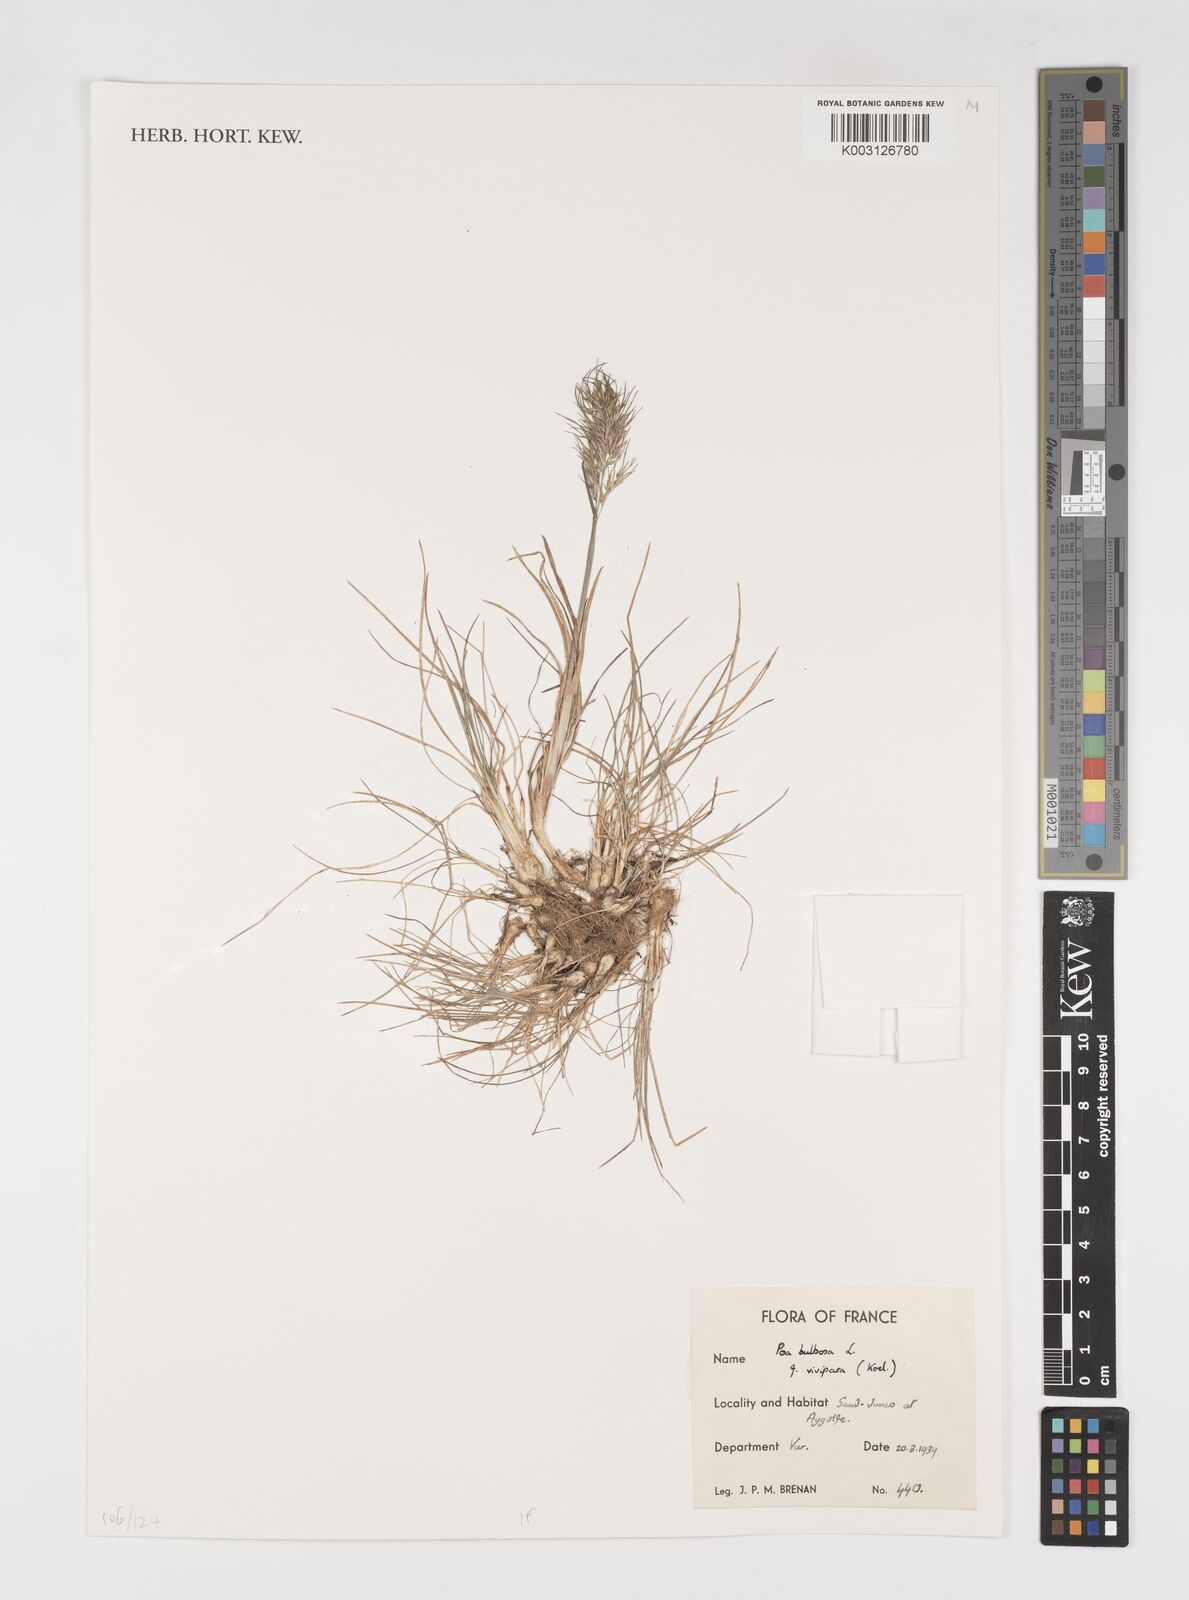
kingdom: Plantae
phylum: Tracheophyta
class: Liliopsida
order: Poales
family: Poaceae
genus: Poa
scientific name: Poa bulbosa
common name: Bulbous bluegrass
